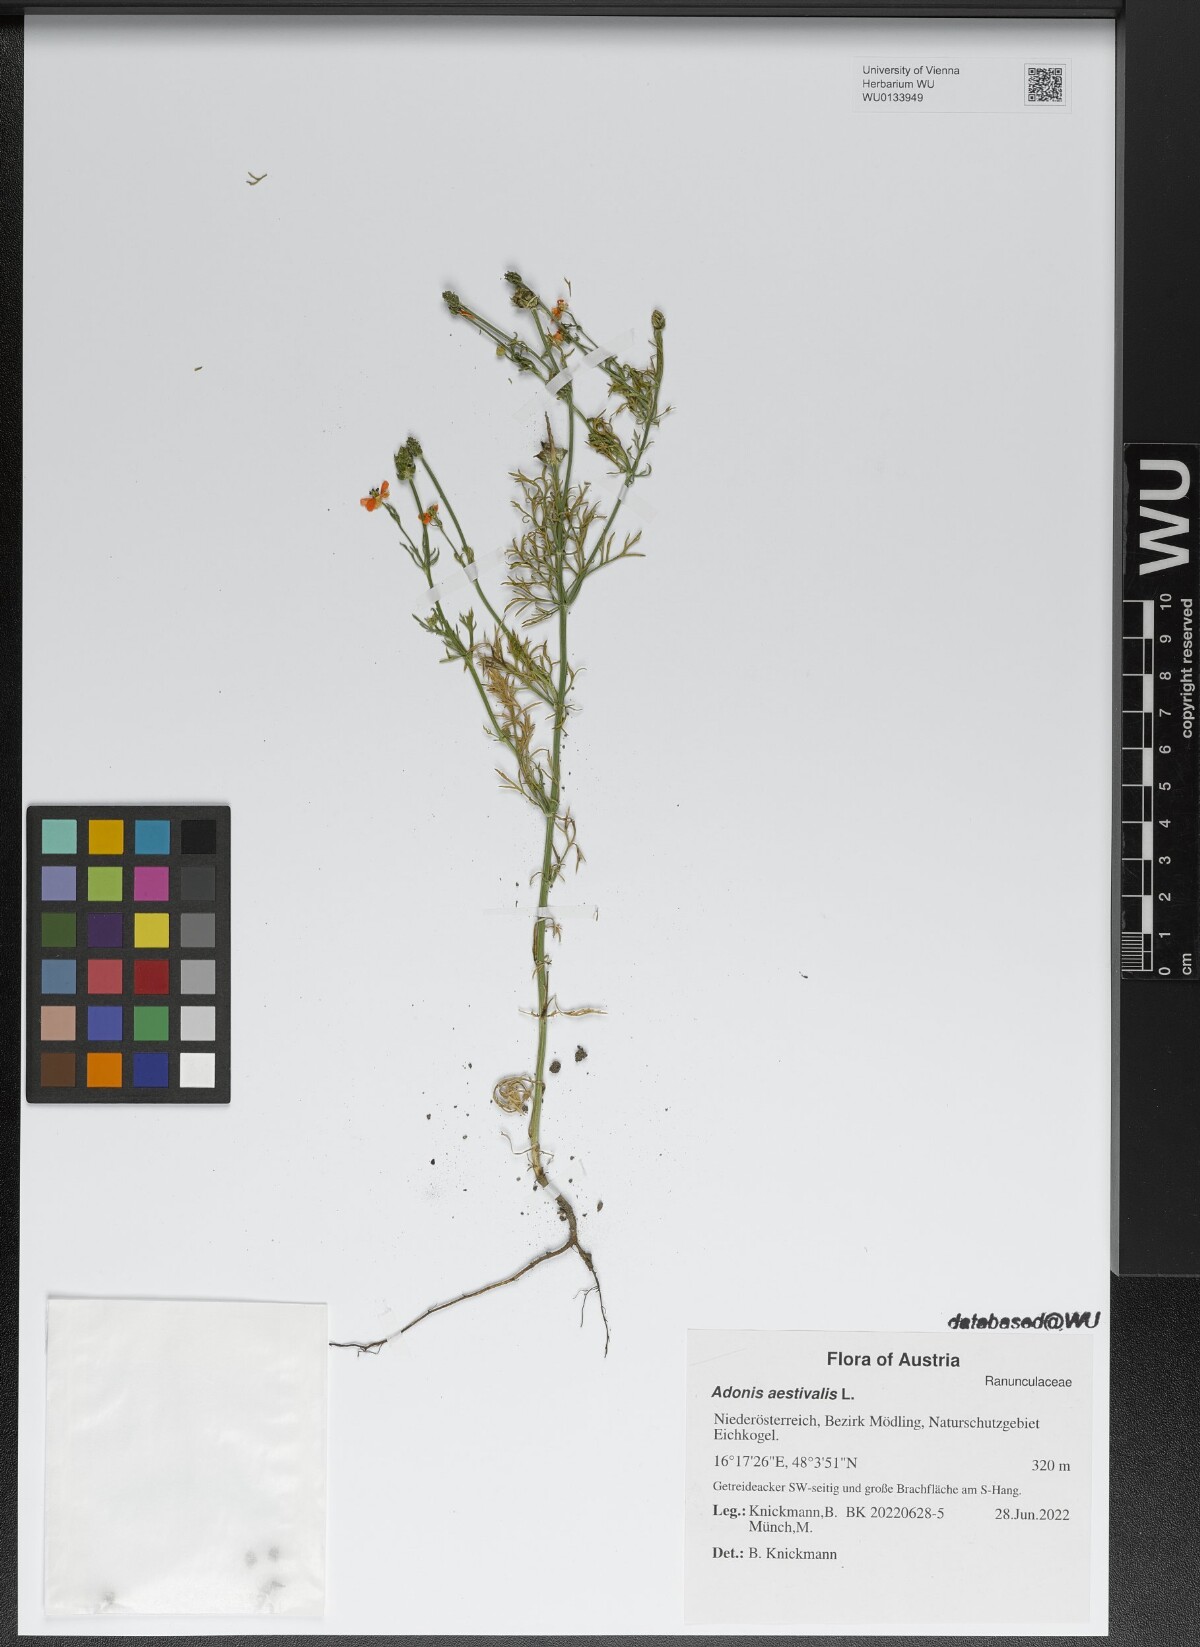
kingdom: Plantae
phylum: Tracheophyta
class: Magnoliopsida
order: Ranunculales
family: Ranunculaceae
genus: Adonis
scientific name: Adonis aestivalis
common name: Summer pheasant's-eye
